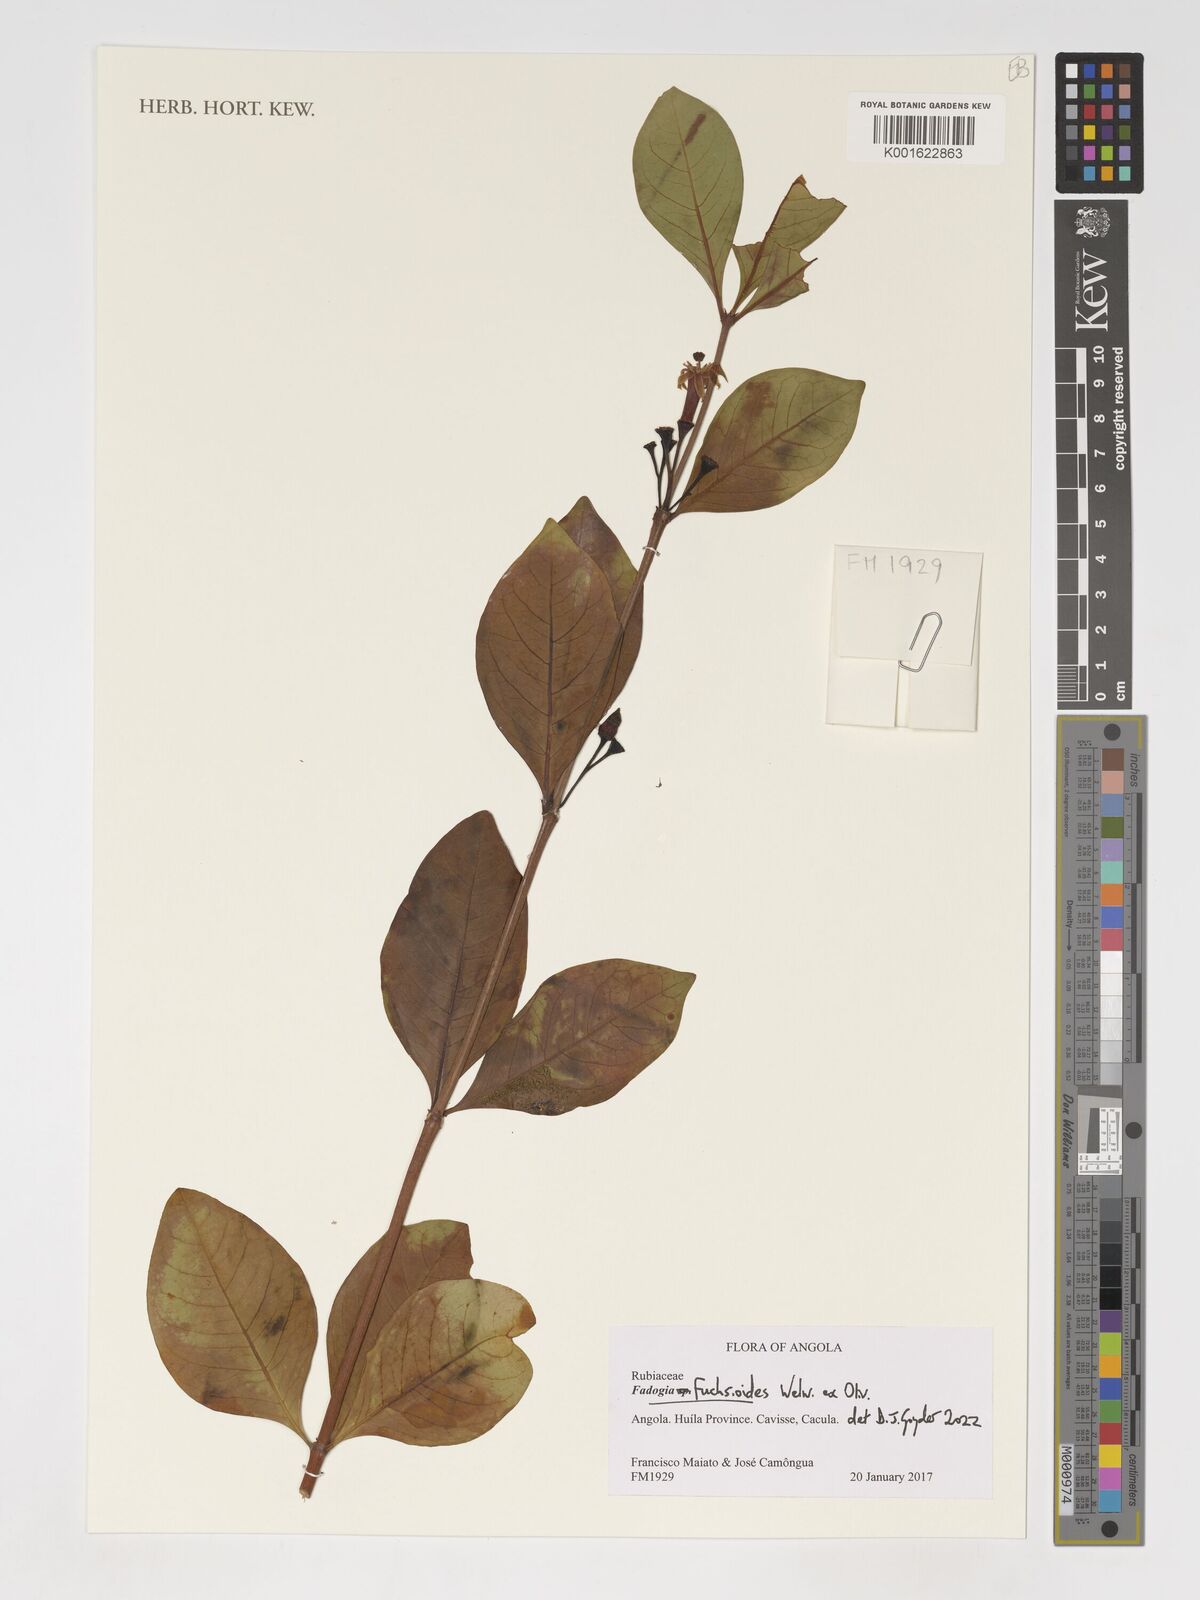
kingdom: Plantae
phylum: Tracheophyta
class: Magnoliopsida
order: Gentianales
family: Rubiaceae
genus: Fadogia
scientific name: Fadogia fuchsioides
